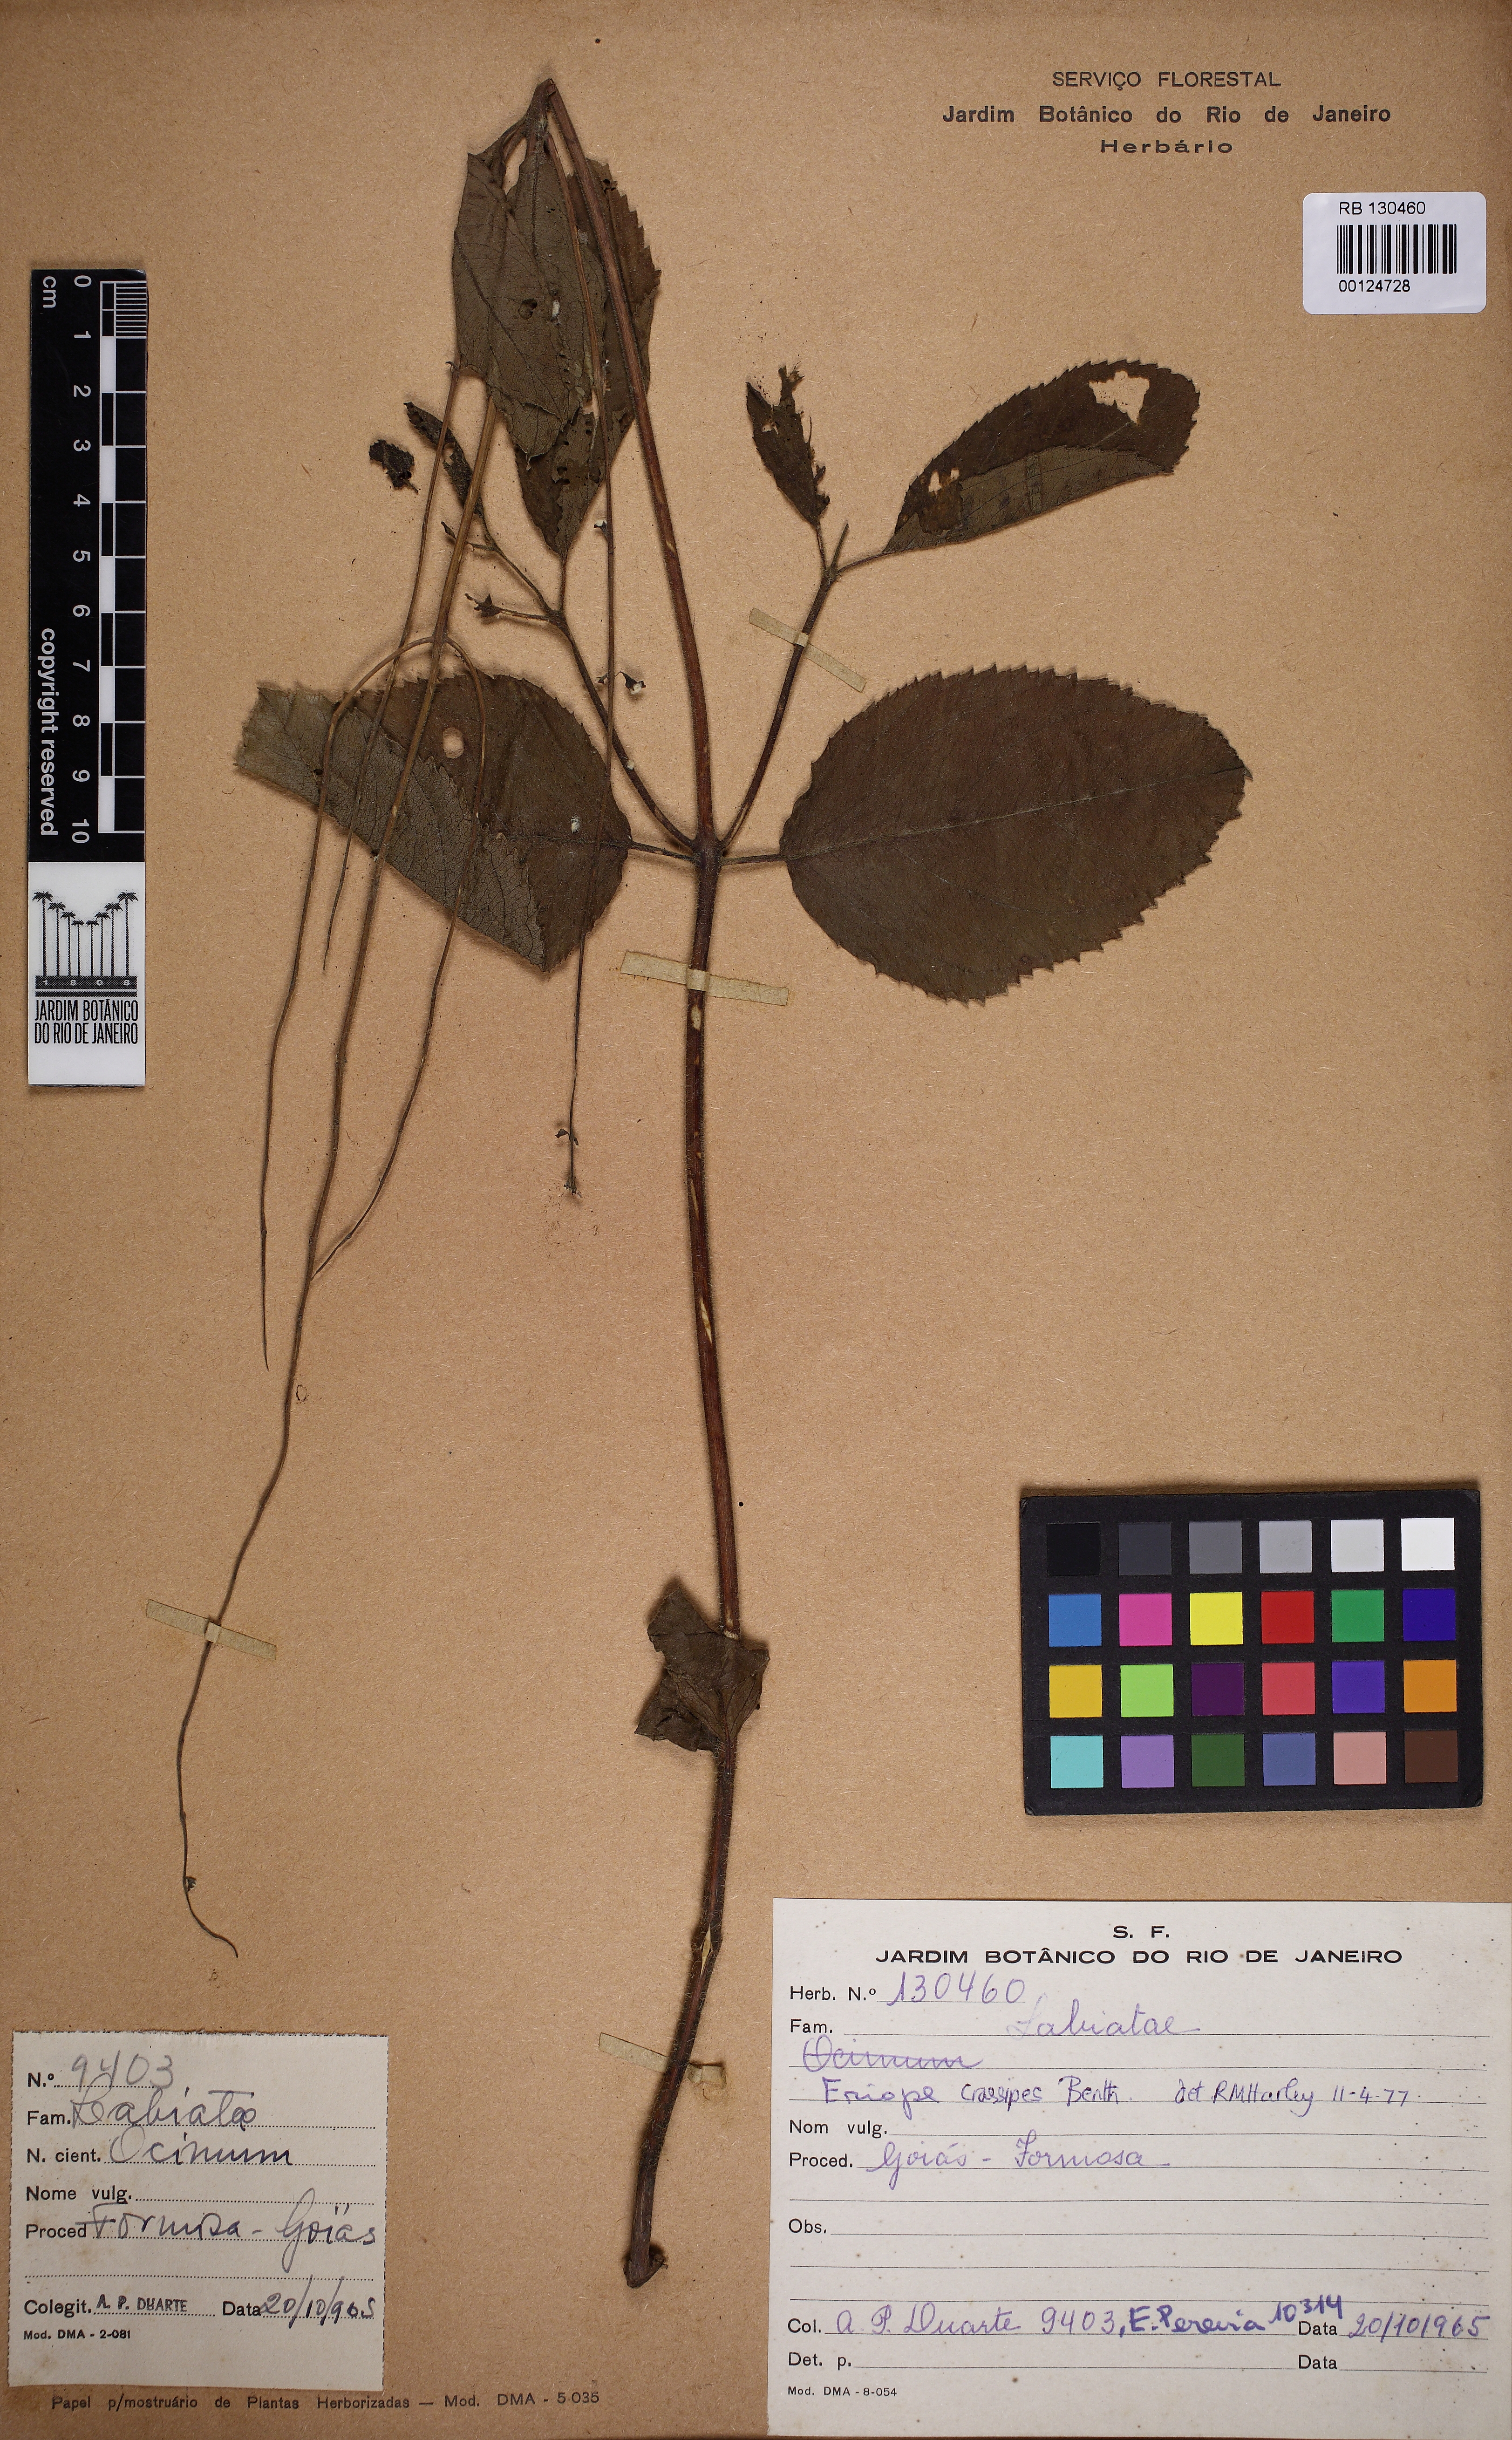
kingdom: Plantae
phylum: Tracheophyta
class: Magnoliopsida
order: Lamiales
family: Lamiaceae
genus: Eriope
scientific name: Eriope crassipes
